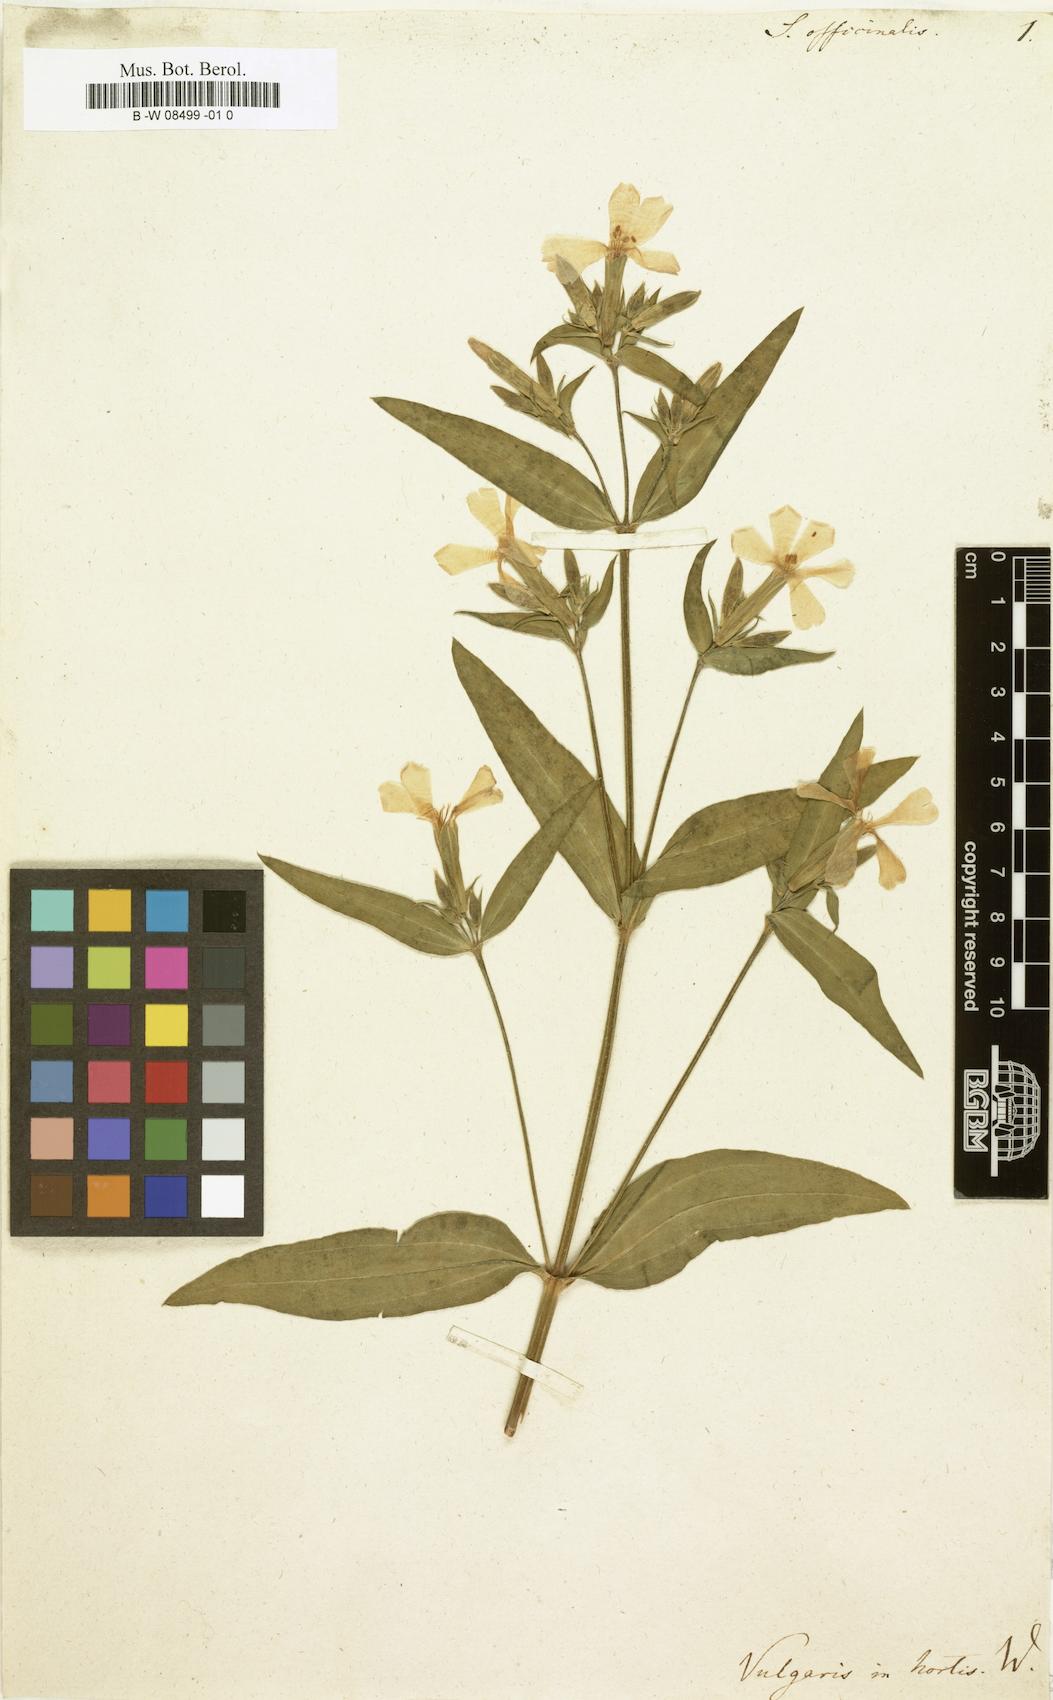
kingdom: Plantae
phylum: Tracheophyta
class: Magnoliopsida
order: Caryophyllales
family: Caryophyllaceae
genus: Saponaria
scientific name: Saponaria officinalis
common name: Soapwort
